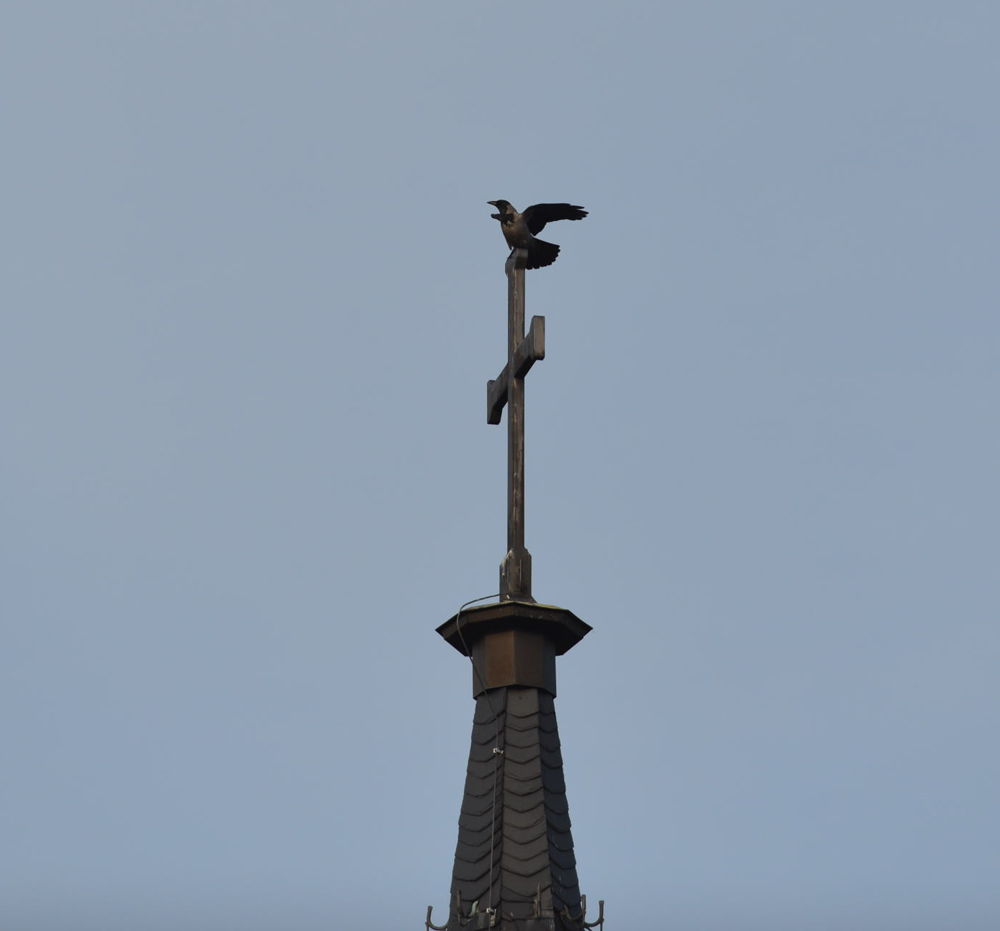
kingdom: Animalia
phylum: Chordata
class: Aves
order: Passeriformes
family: Corvidae
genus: Corvus
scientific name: Corvus cornix
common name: Hooded crow
